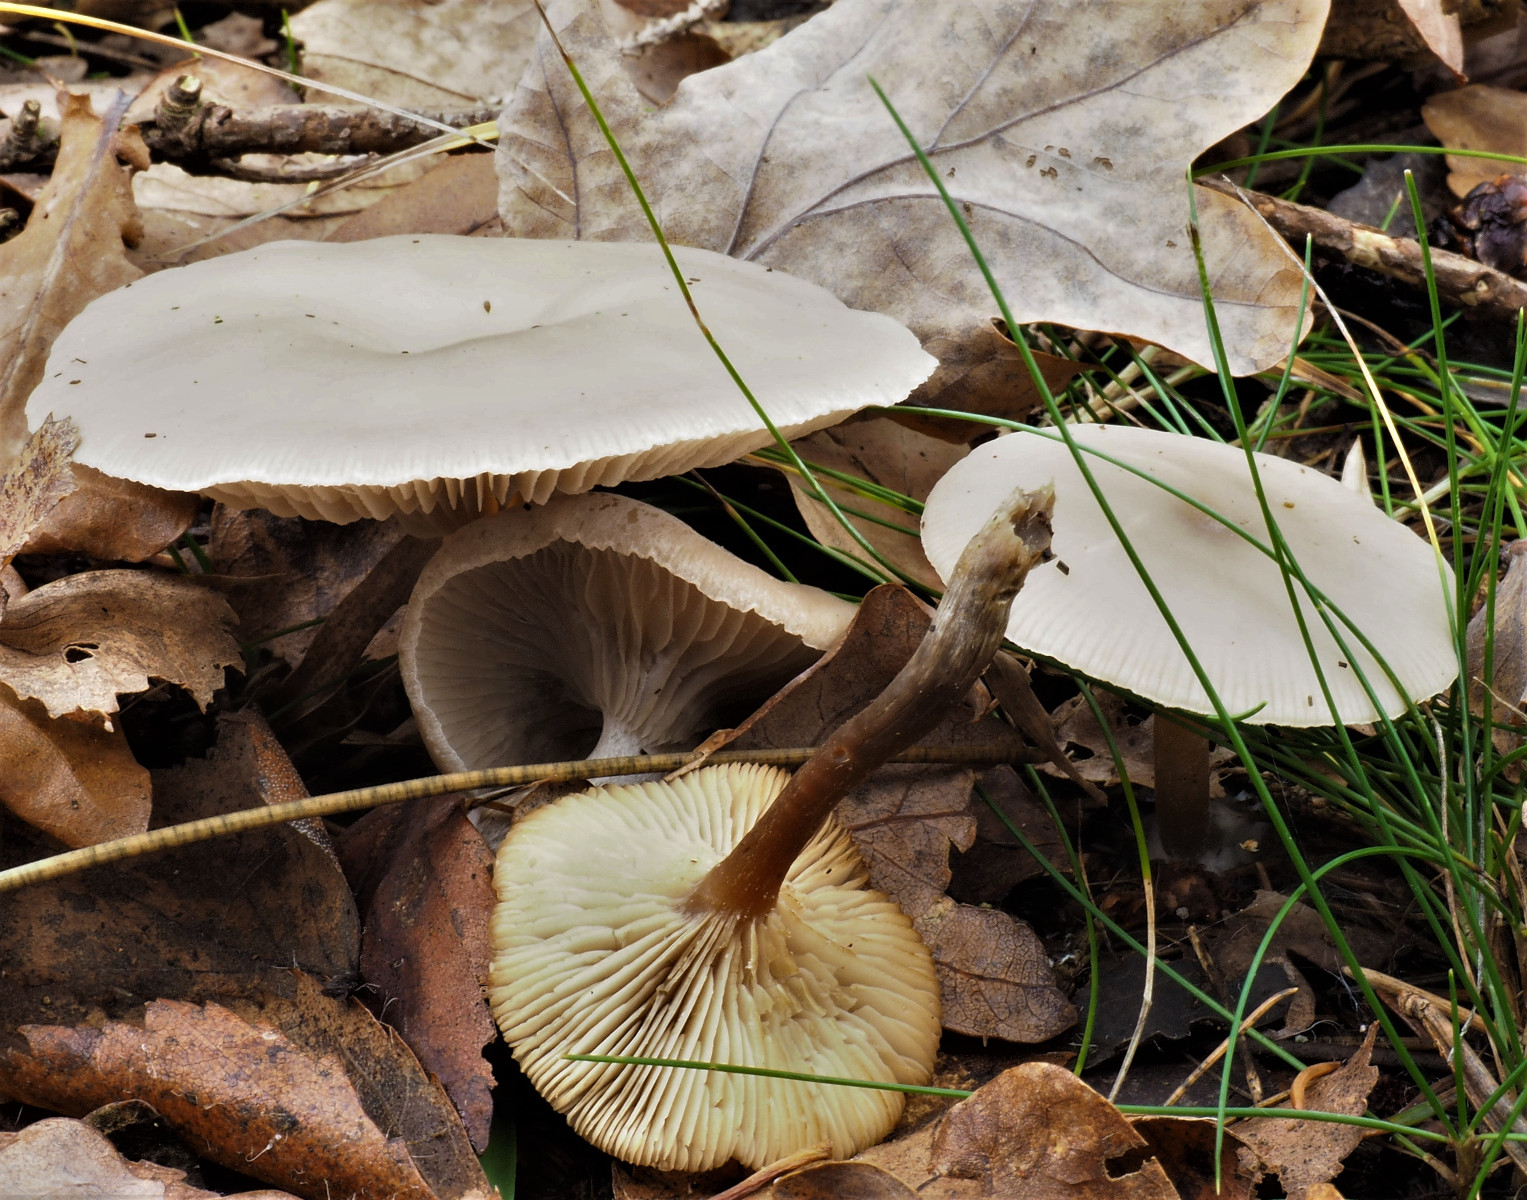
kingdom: Fungi
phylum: Basidiomycota
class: Agaricomycetes
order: Agaricales
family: Tricholomataceae
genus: Clitocybe
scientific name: Clitocybe metachroa
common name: grå tragthat
